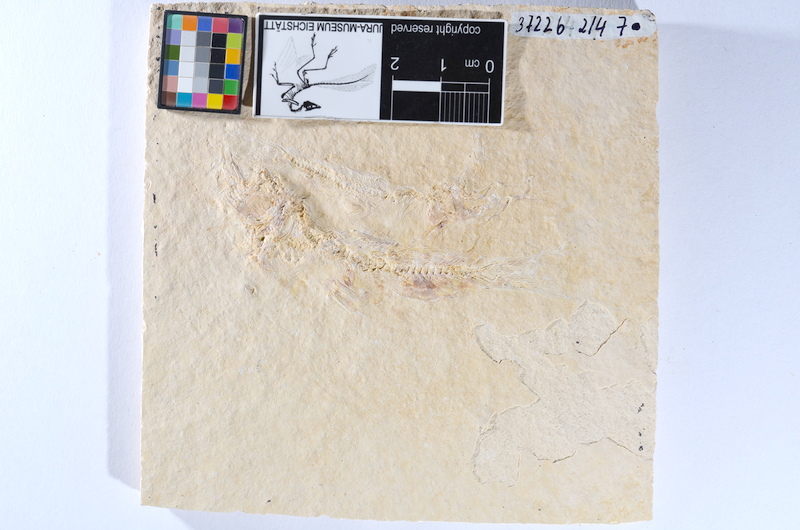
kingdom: Animalia
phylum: Chordata
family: Ascalaboidae
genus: Tharsis
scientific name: Tharsis dubius
